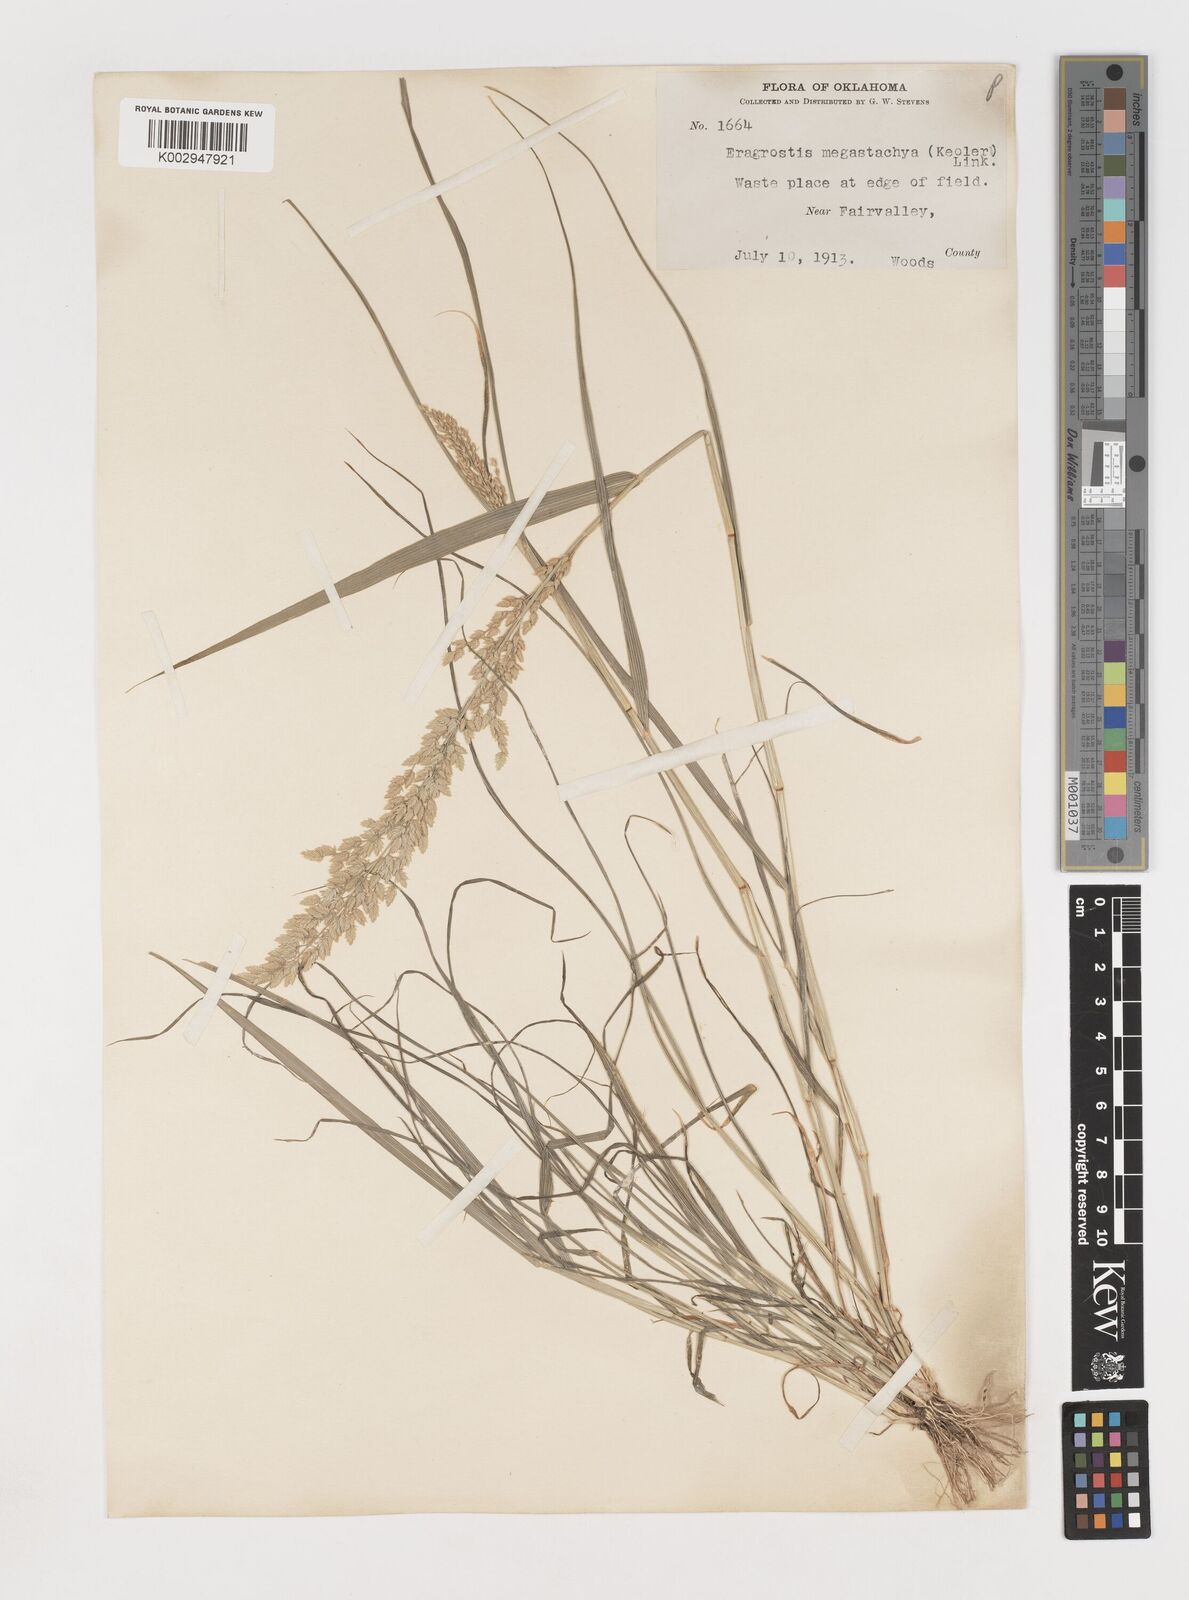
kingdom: Plantae
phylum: Tracheophyta
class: Liliopsida
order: Poales
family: Poaceae
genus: Eragrostis
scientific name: Eragrostis
